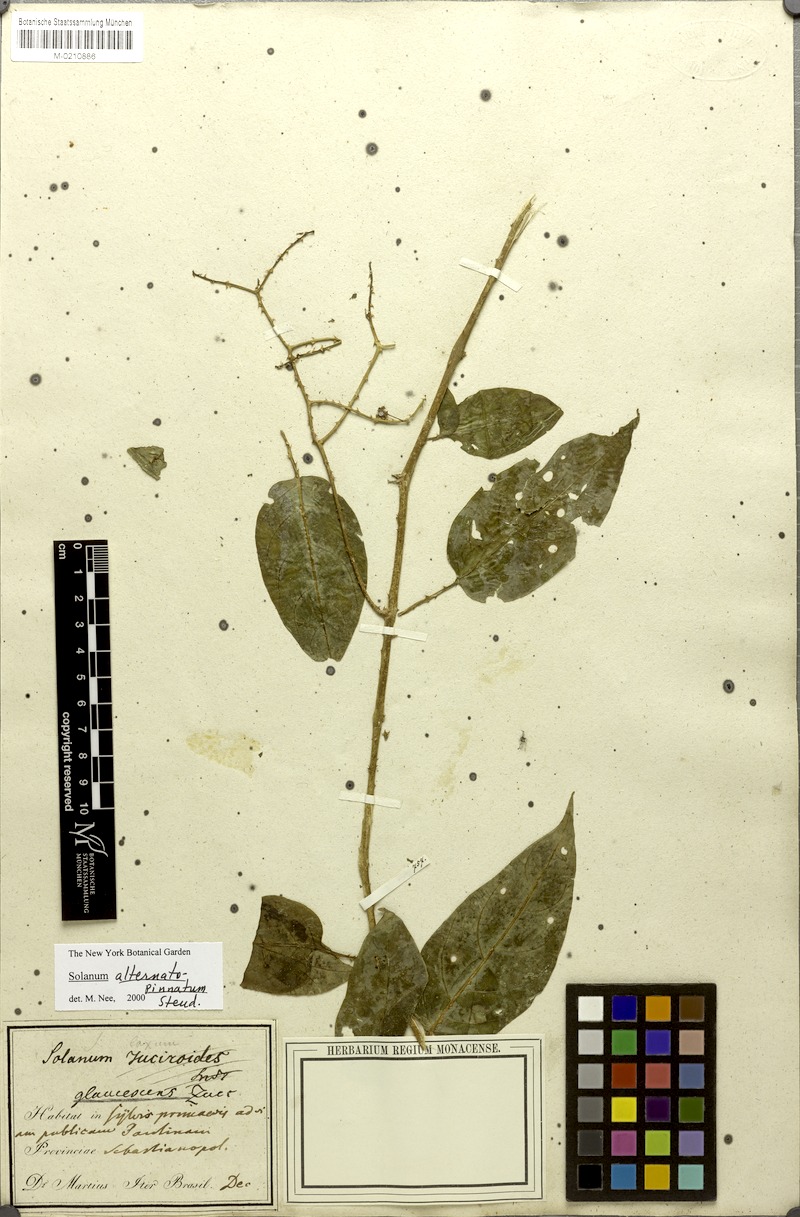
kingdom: Plantae
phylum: Tracheophyta
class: Magnoliopsida
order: Solanales
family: Solanaceae
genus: Solanum
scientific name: Solanum alternatopinnatum
